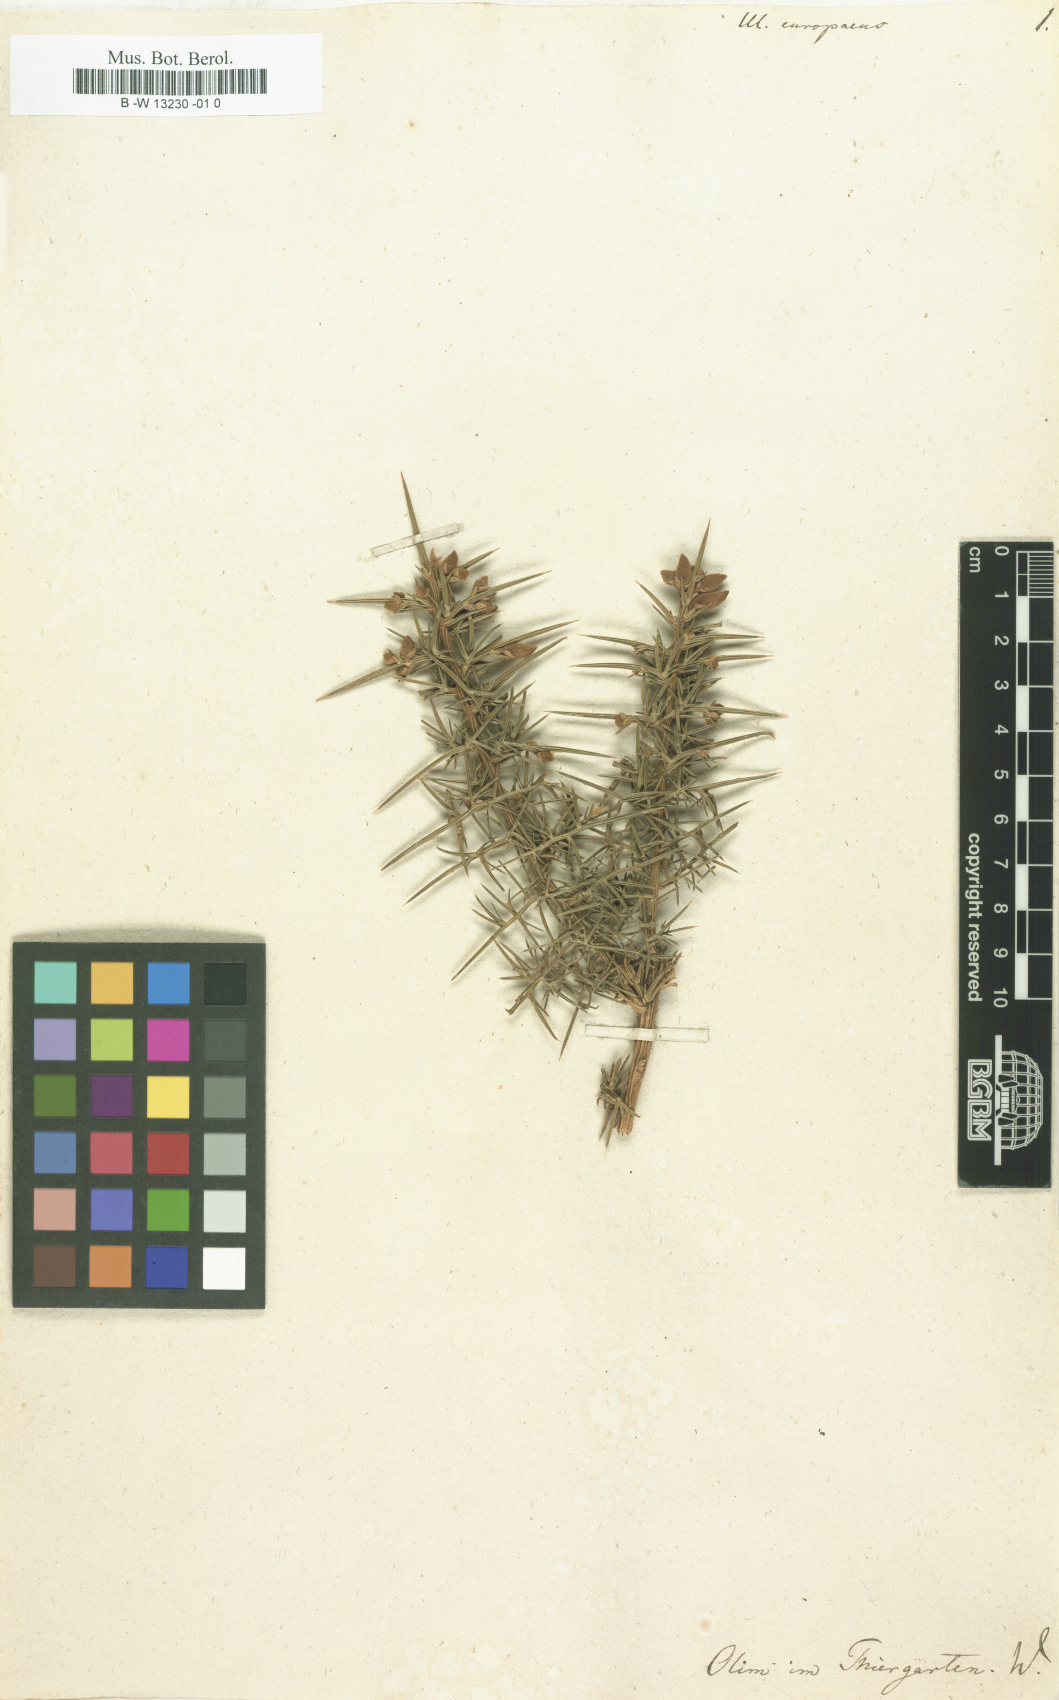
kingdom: Plantae
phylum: Tracheophyta
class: Magnoliopsida
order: Fabales
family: Fabaceae
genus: Ulex
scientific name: Ulex europaeus
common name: Common gorse
